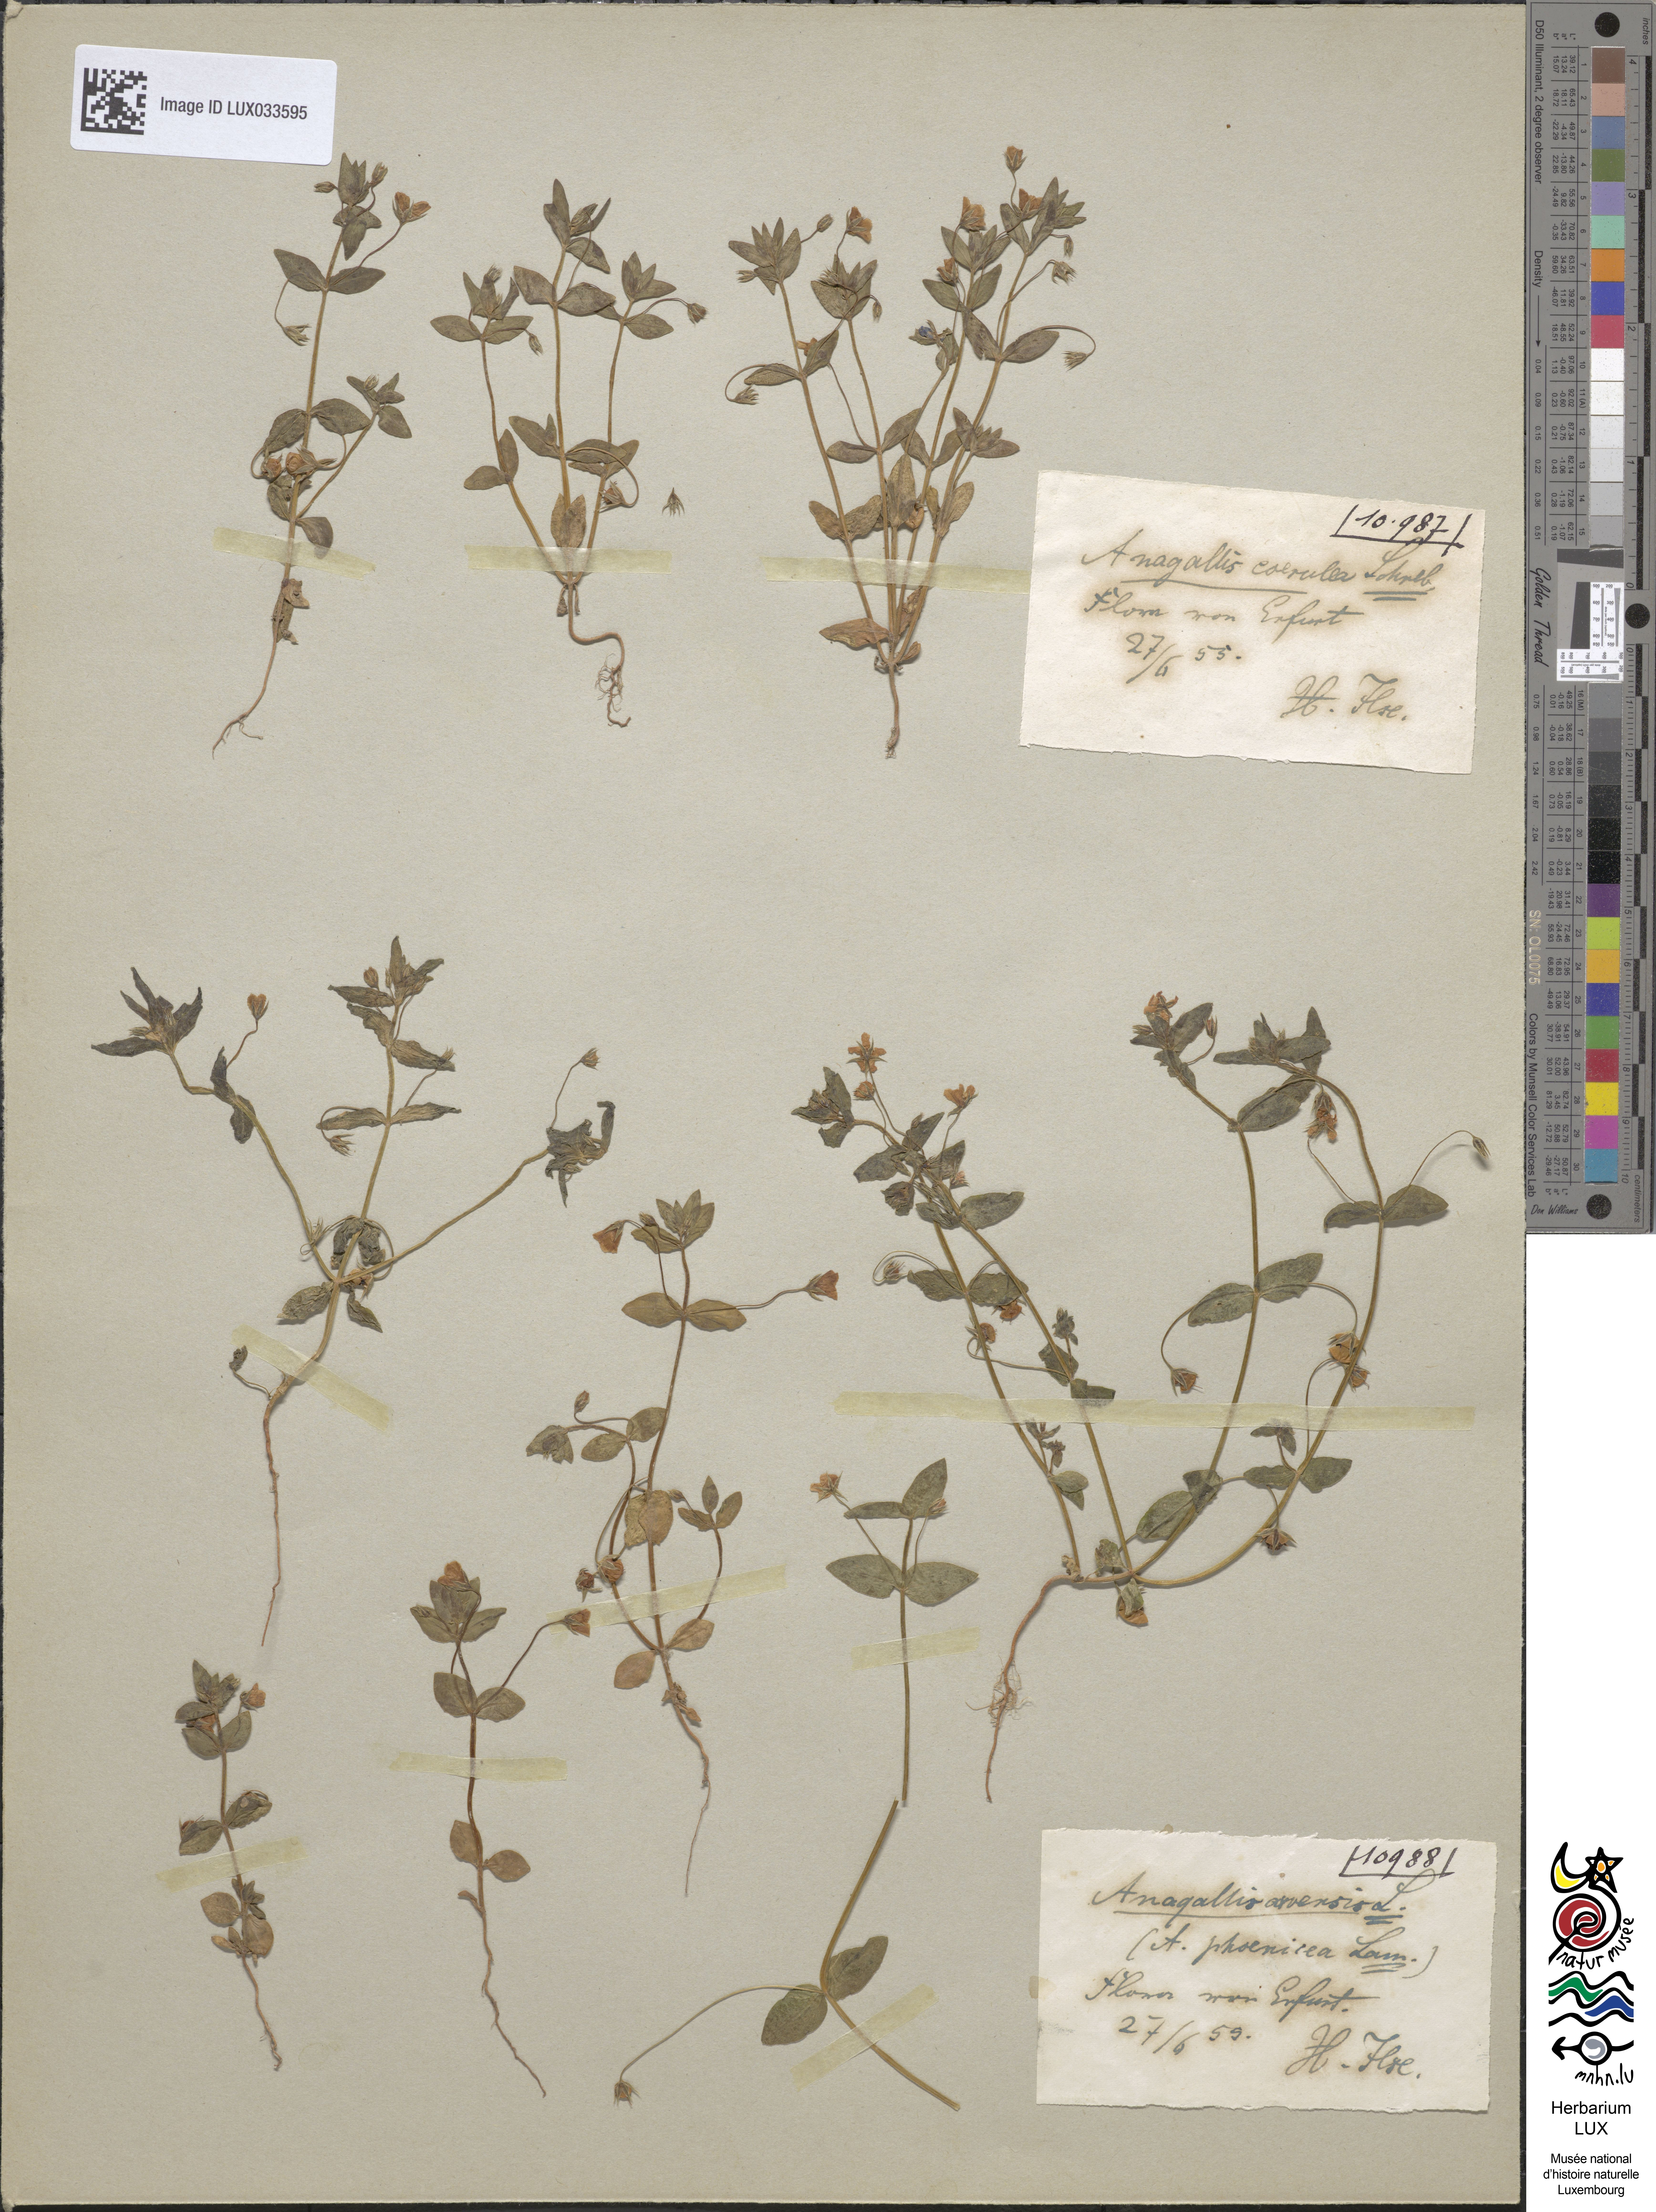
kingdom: Plantae
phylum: Tracheophyta
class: Magnoliopsida
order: Ericales
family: Primulaceae
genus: Lysimachia
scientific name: Lysimachia foemina
